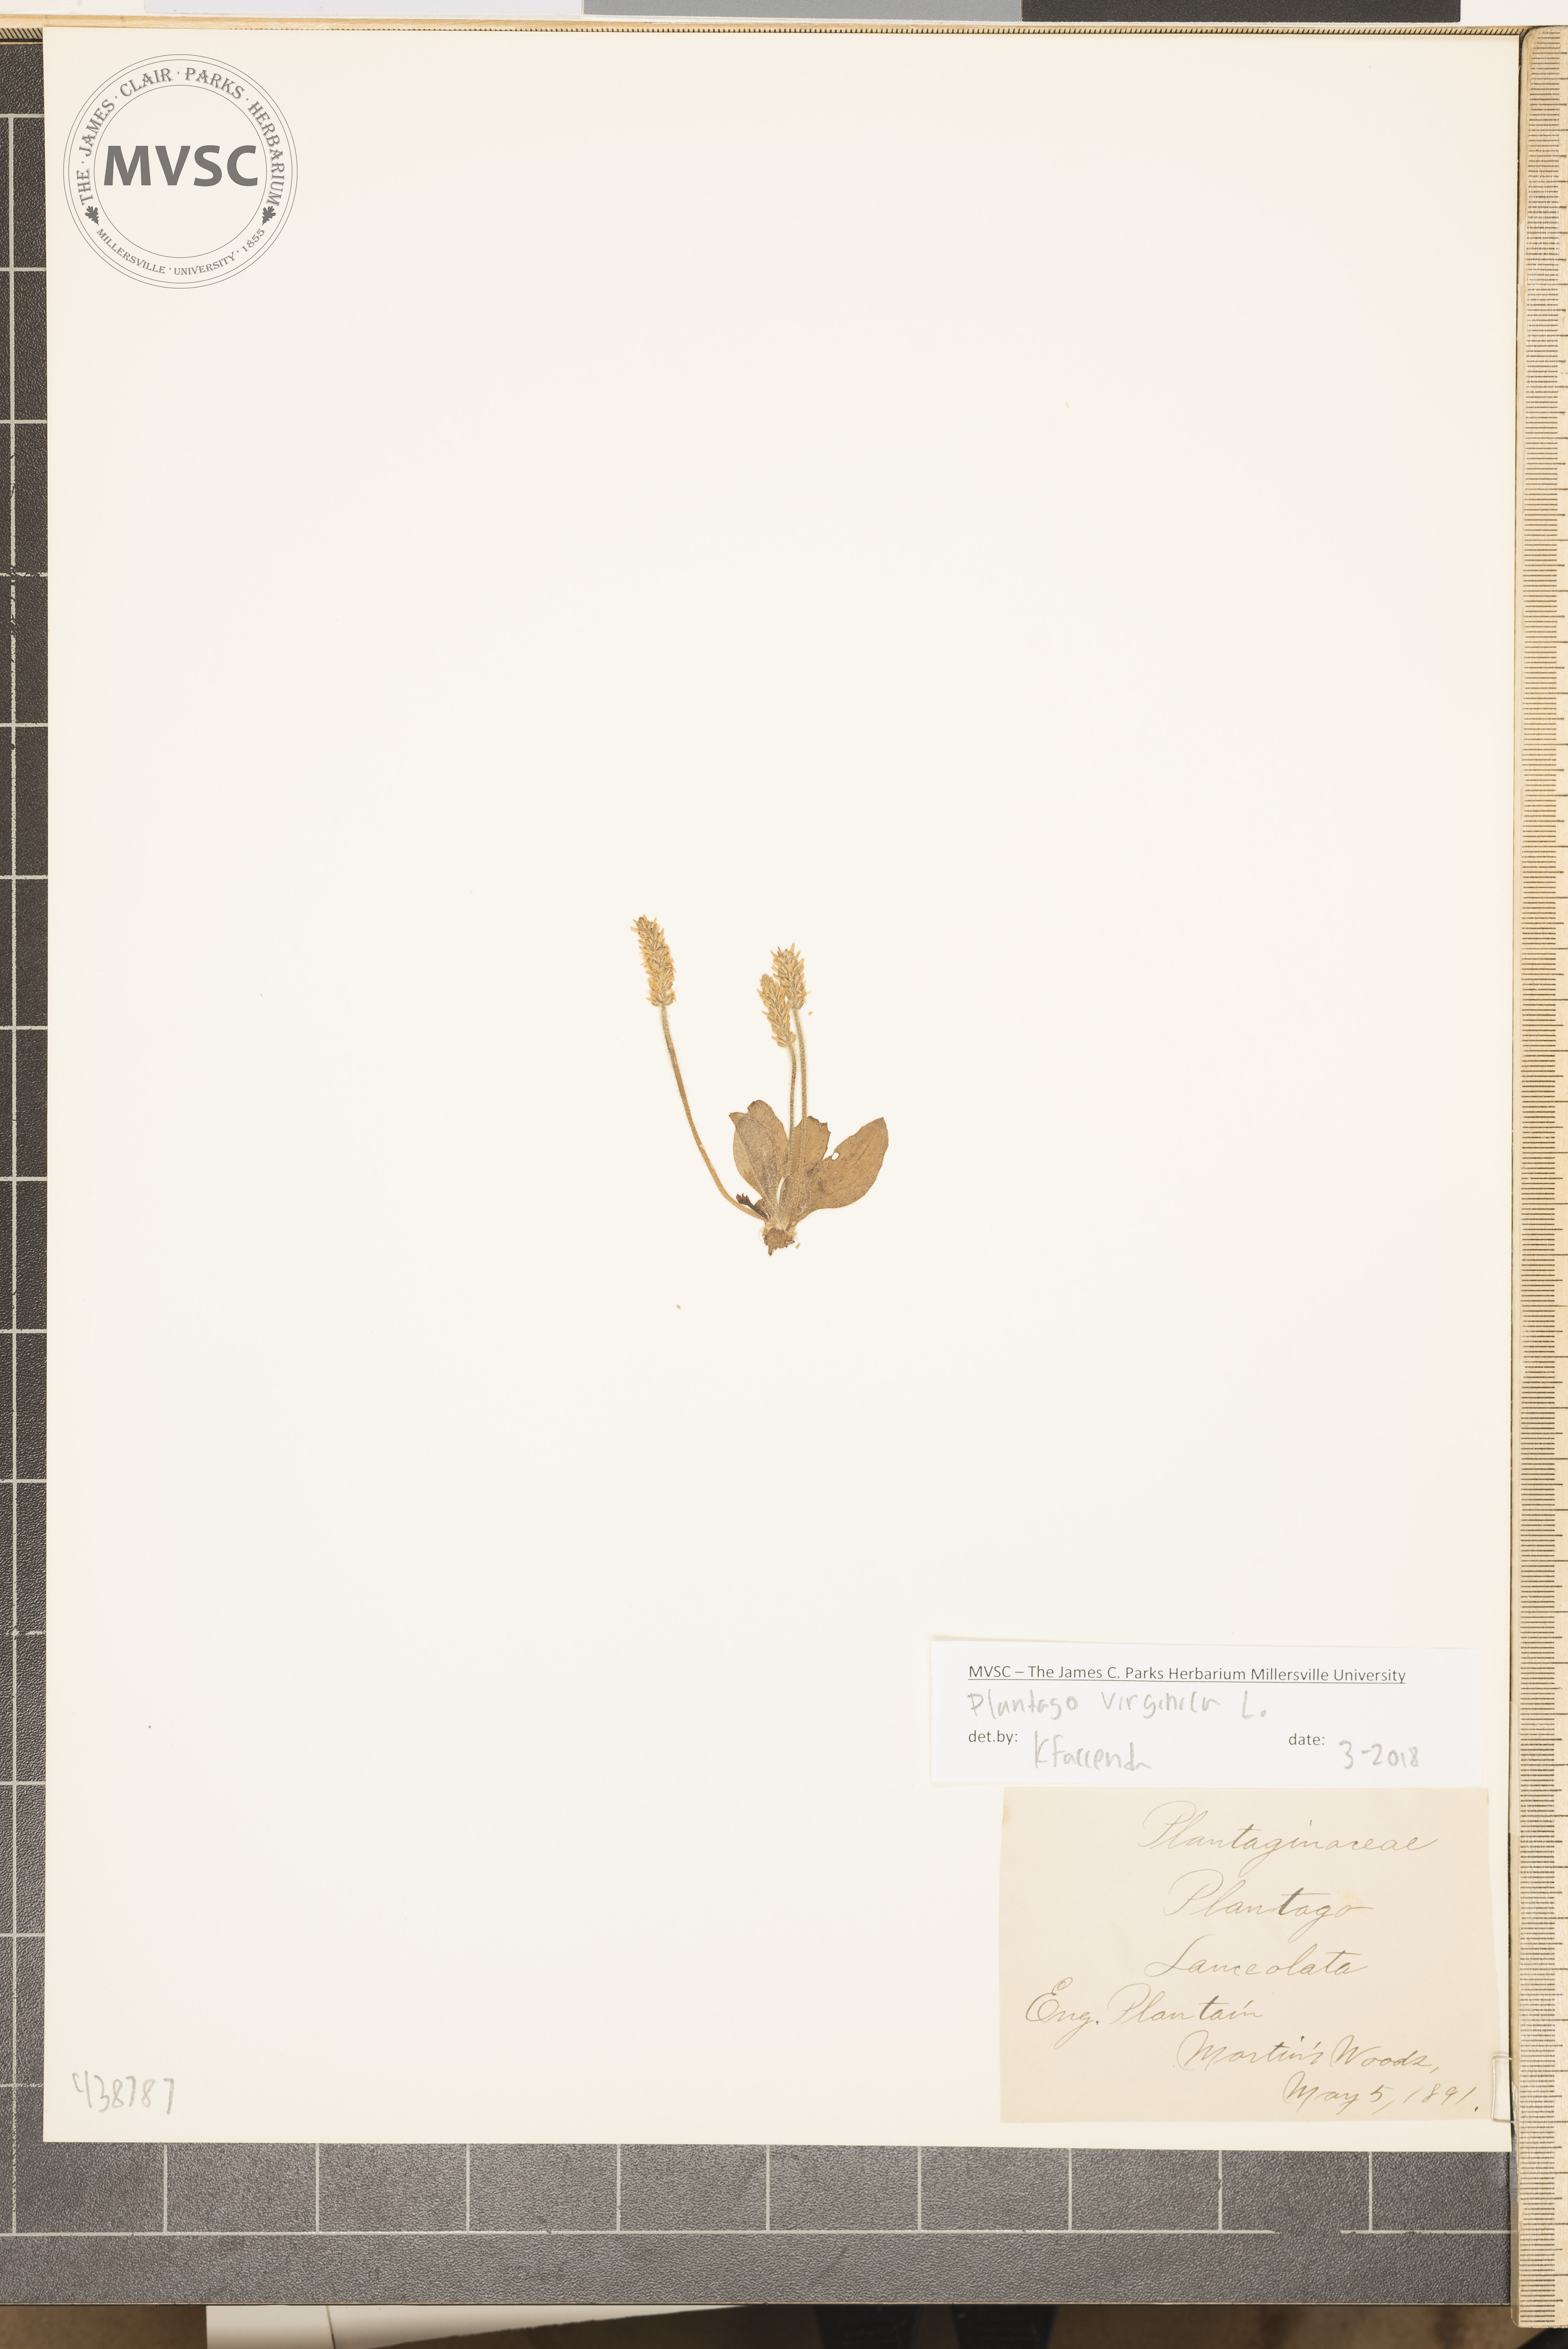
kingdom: Plantae
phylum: Tracheophyta
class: Magnoliopsida
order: Lamiales
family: Plantaginaceae
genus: Plantago
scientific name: Plantago lanceolata
